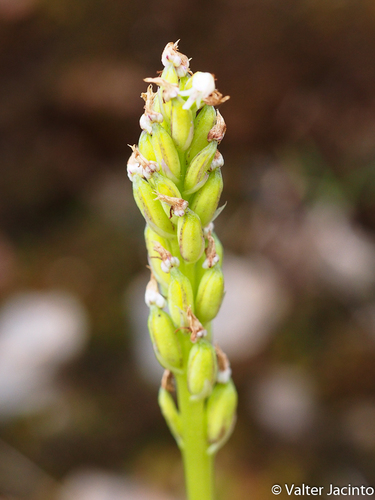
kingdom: Plantae
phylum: Tracheophyta
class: Liliopsida
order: Asparagales
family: Orchidaceae
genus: Neotinea
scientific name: Neotinea maculata
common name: Dense-flowered orchid
